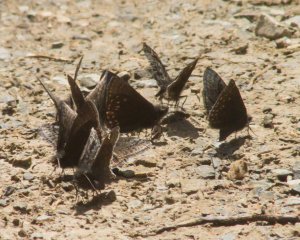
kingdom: Animalia
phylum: Arthropoda
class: Insecta
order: Lepidoptera
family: Hesperiidae
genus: Erynnis
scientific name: Erynnis brizo
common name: Sleepy Duskywing
